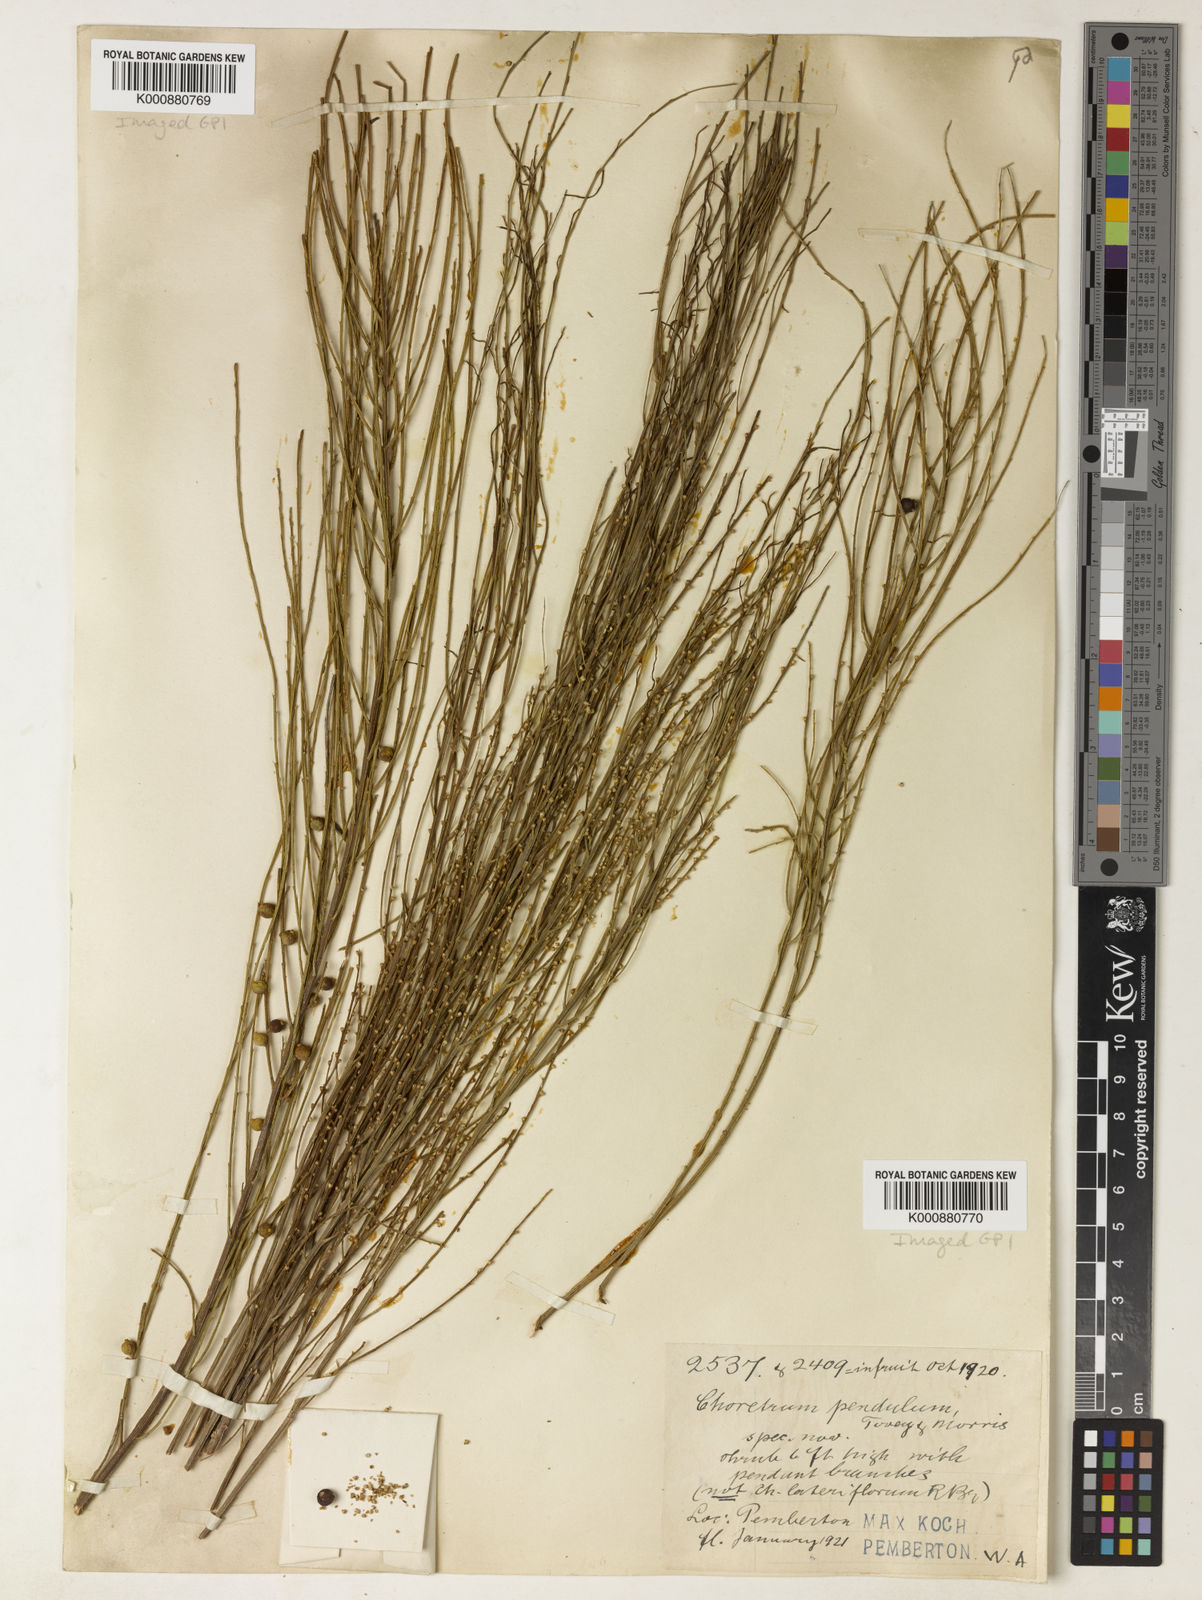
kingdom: Plantae
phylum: Tracheophyta
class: Magnoliopsida
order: Santalales
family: Amphorogynaceae
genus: Choretrum
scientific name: Choretrum lateriflorum
